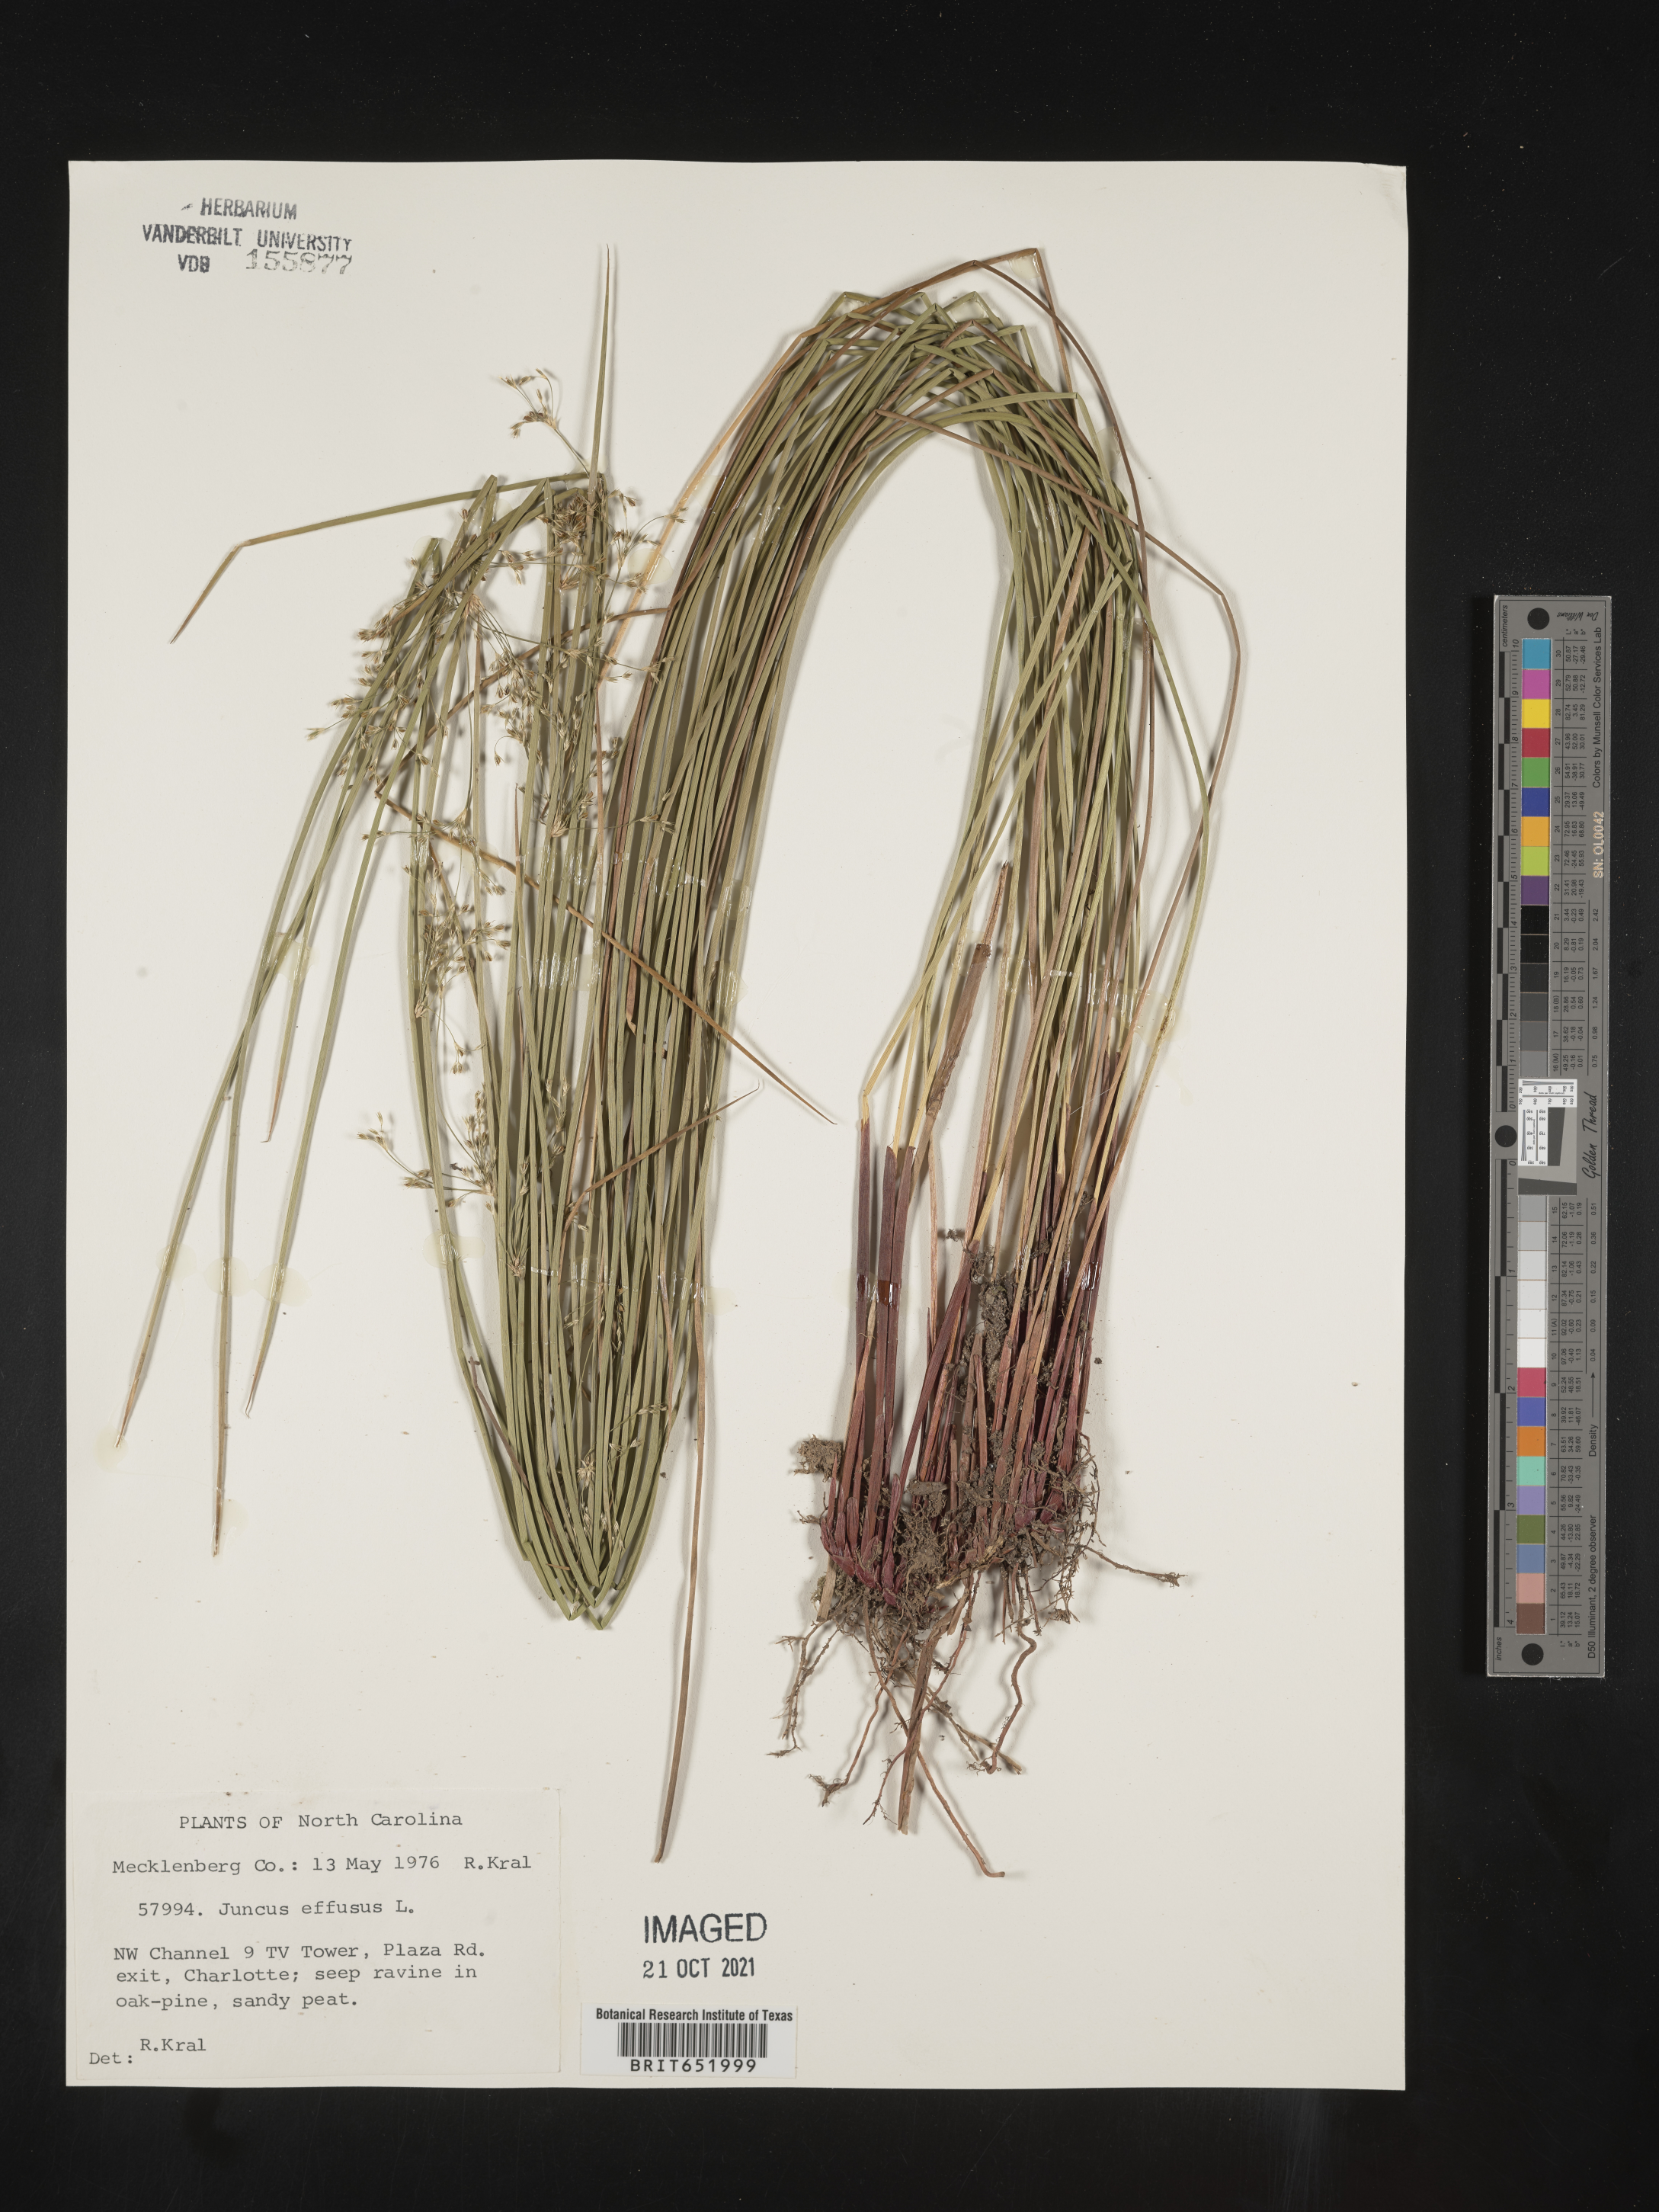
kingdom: Plantae
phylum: Tracheophyta
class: Liliopsida
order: Poales
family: Juncaceae
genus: Juncus
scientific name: Juncus effusus
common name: Soft rush
